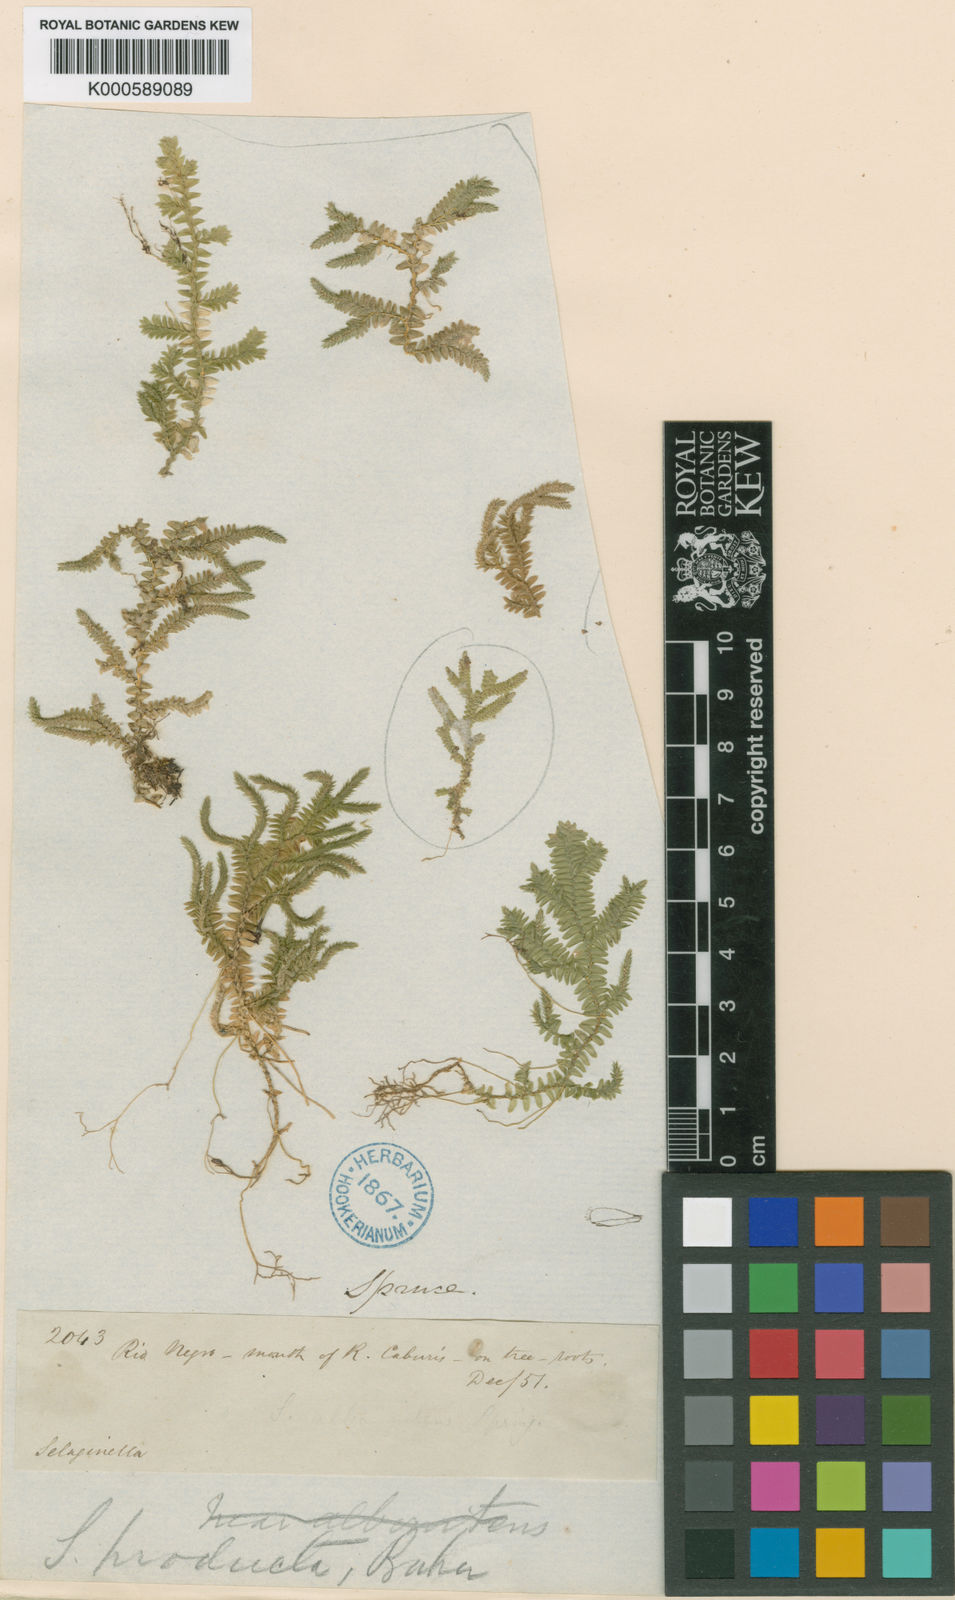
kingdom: Plantae
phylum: Tracheophyta
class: Lycopodiopsida
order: Selaginellales
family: Selaginellaceae
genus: Selaginella
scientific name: Selaginella revoluta
